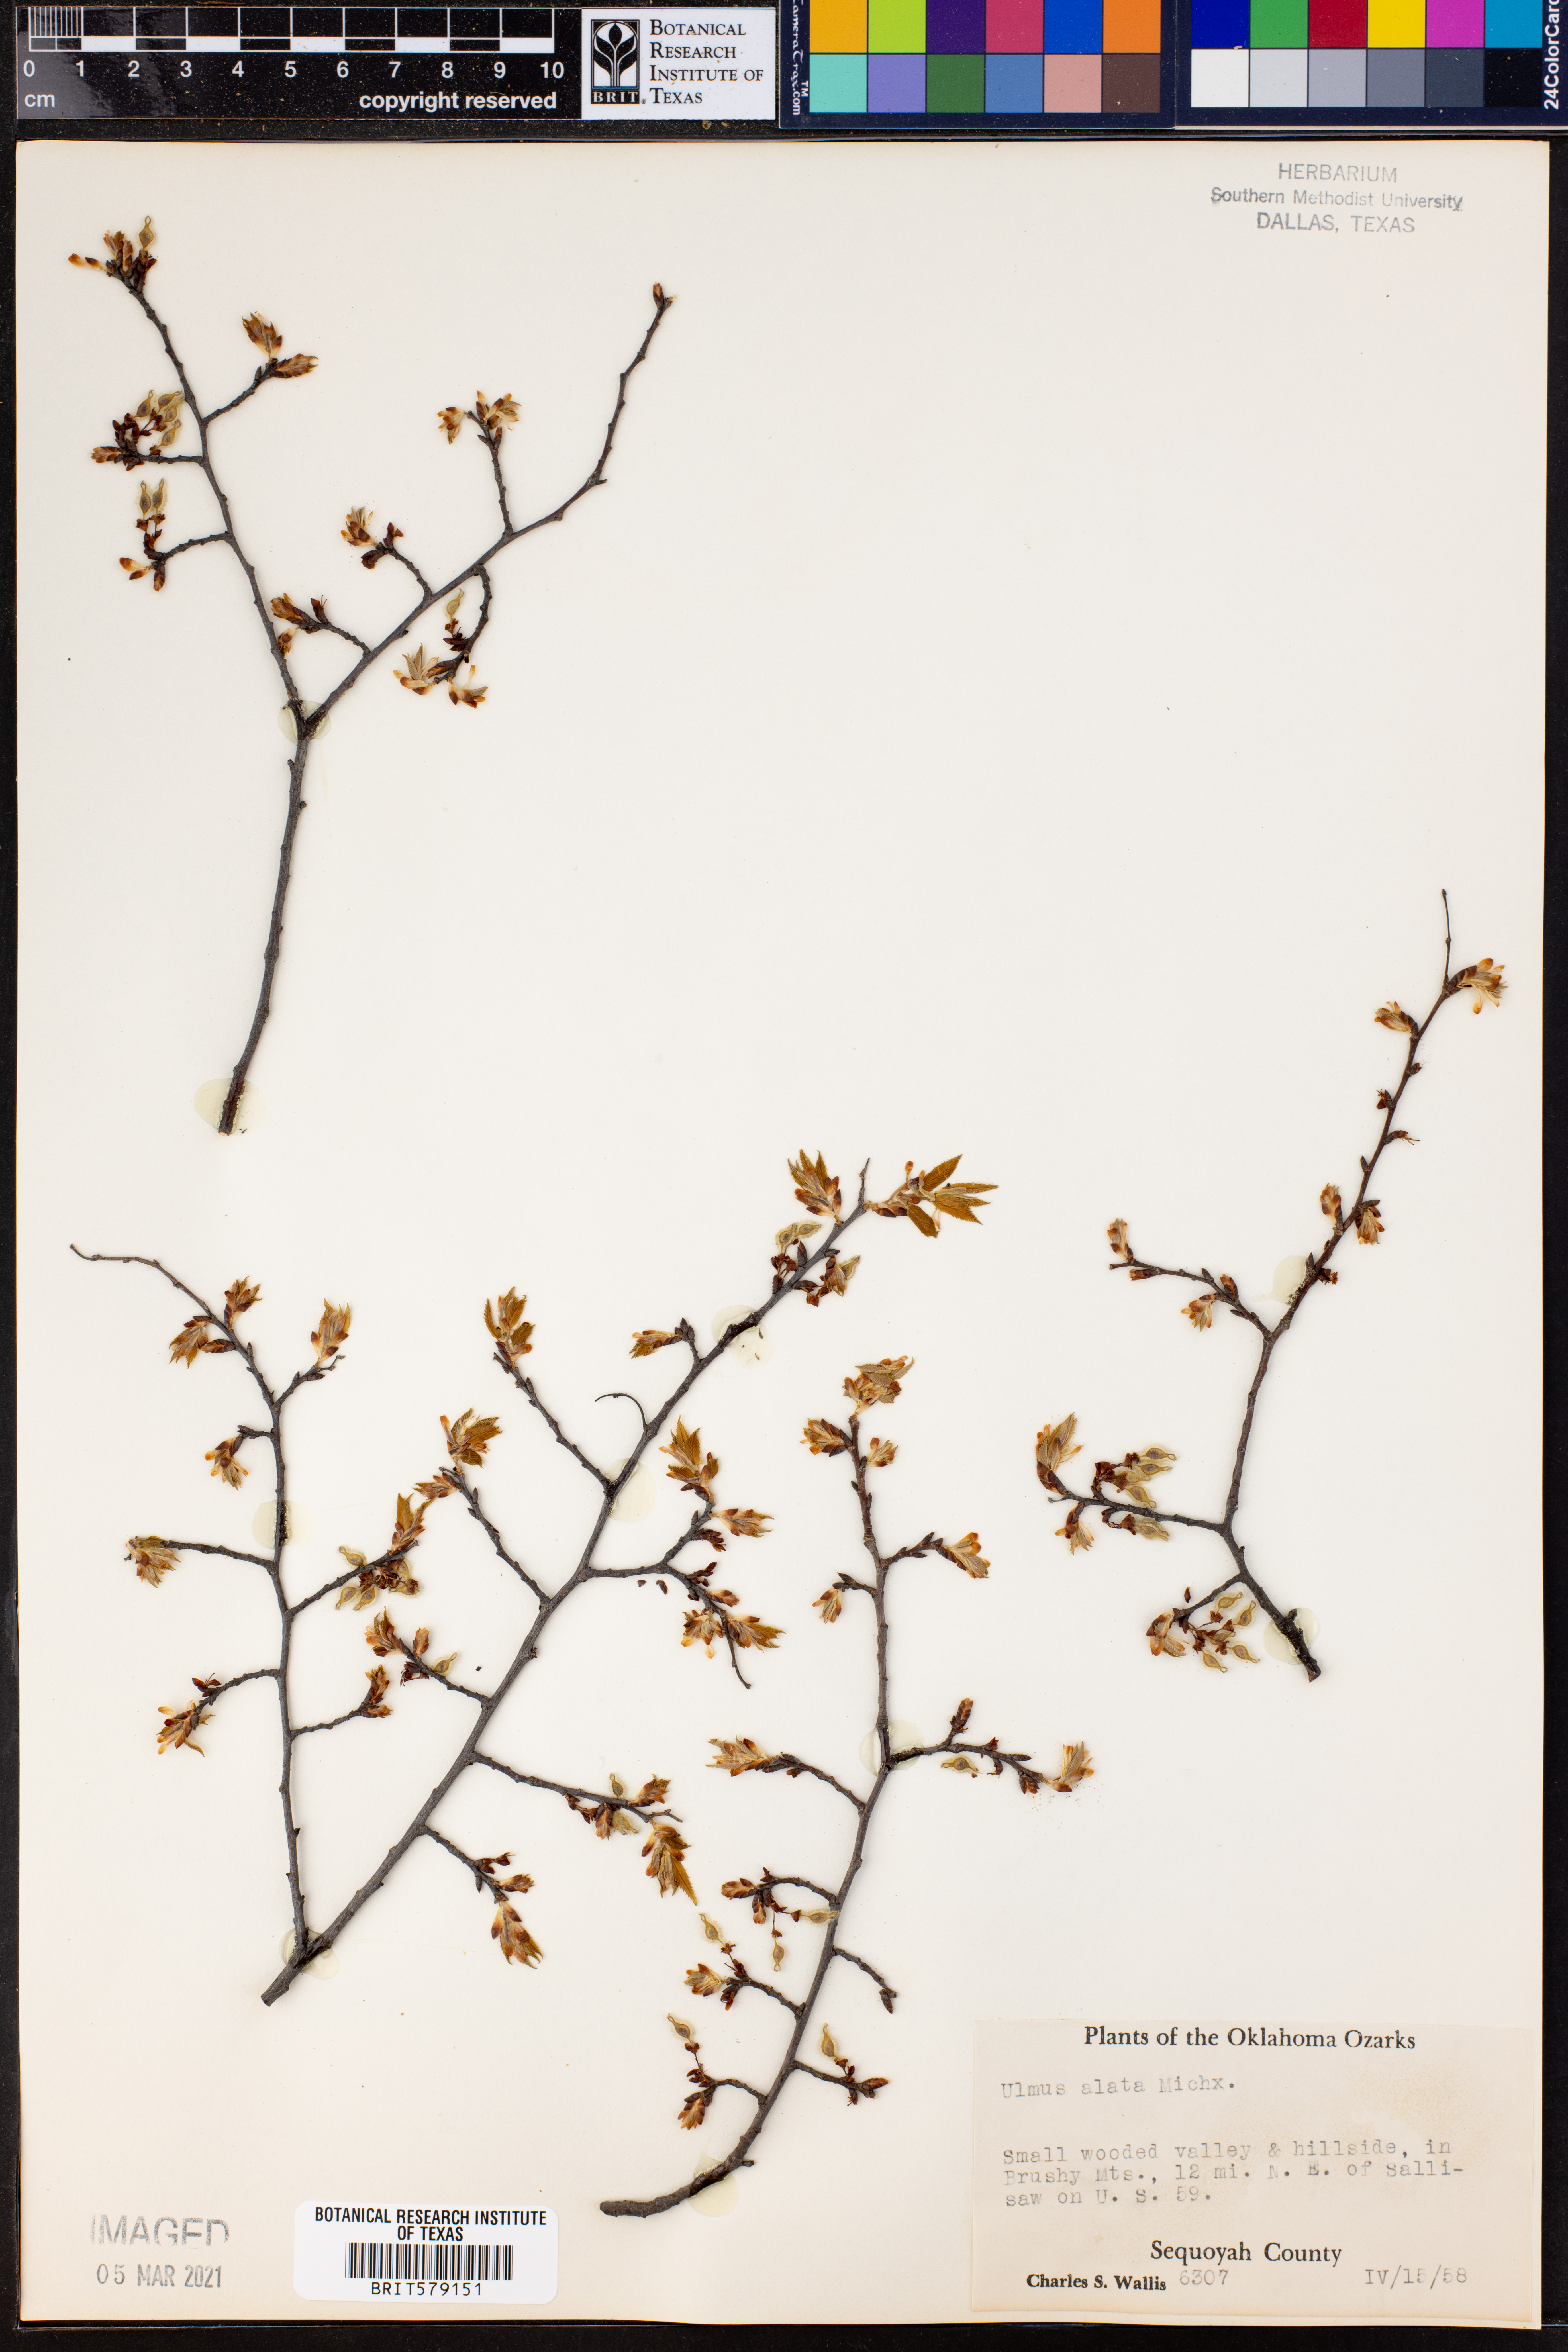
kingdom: Plantae
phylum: Tracheophyta
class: Magnoliopsida
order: Rosales
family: Ulmaceae
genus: Ulmus
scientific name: Ulmus alata
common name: Winged elm
